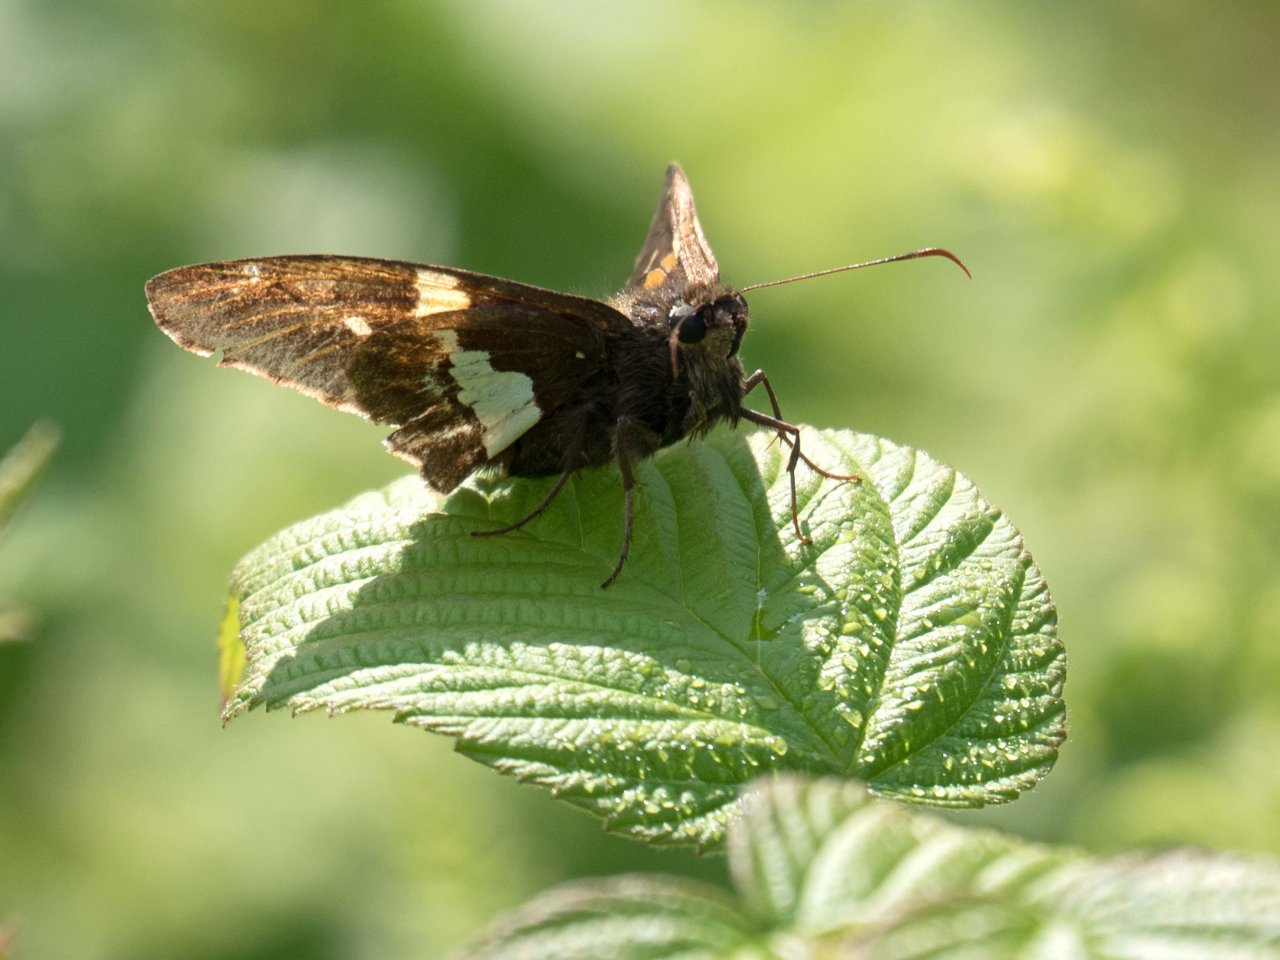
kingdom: Animalia
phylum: Arthropoda
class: Insecta
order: Lepidoptera
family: Hesperiidae
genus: Epargyreus
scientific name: Epargyreus clarus
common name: Silver-spotted Skipper
